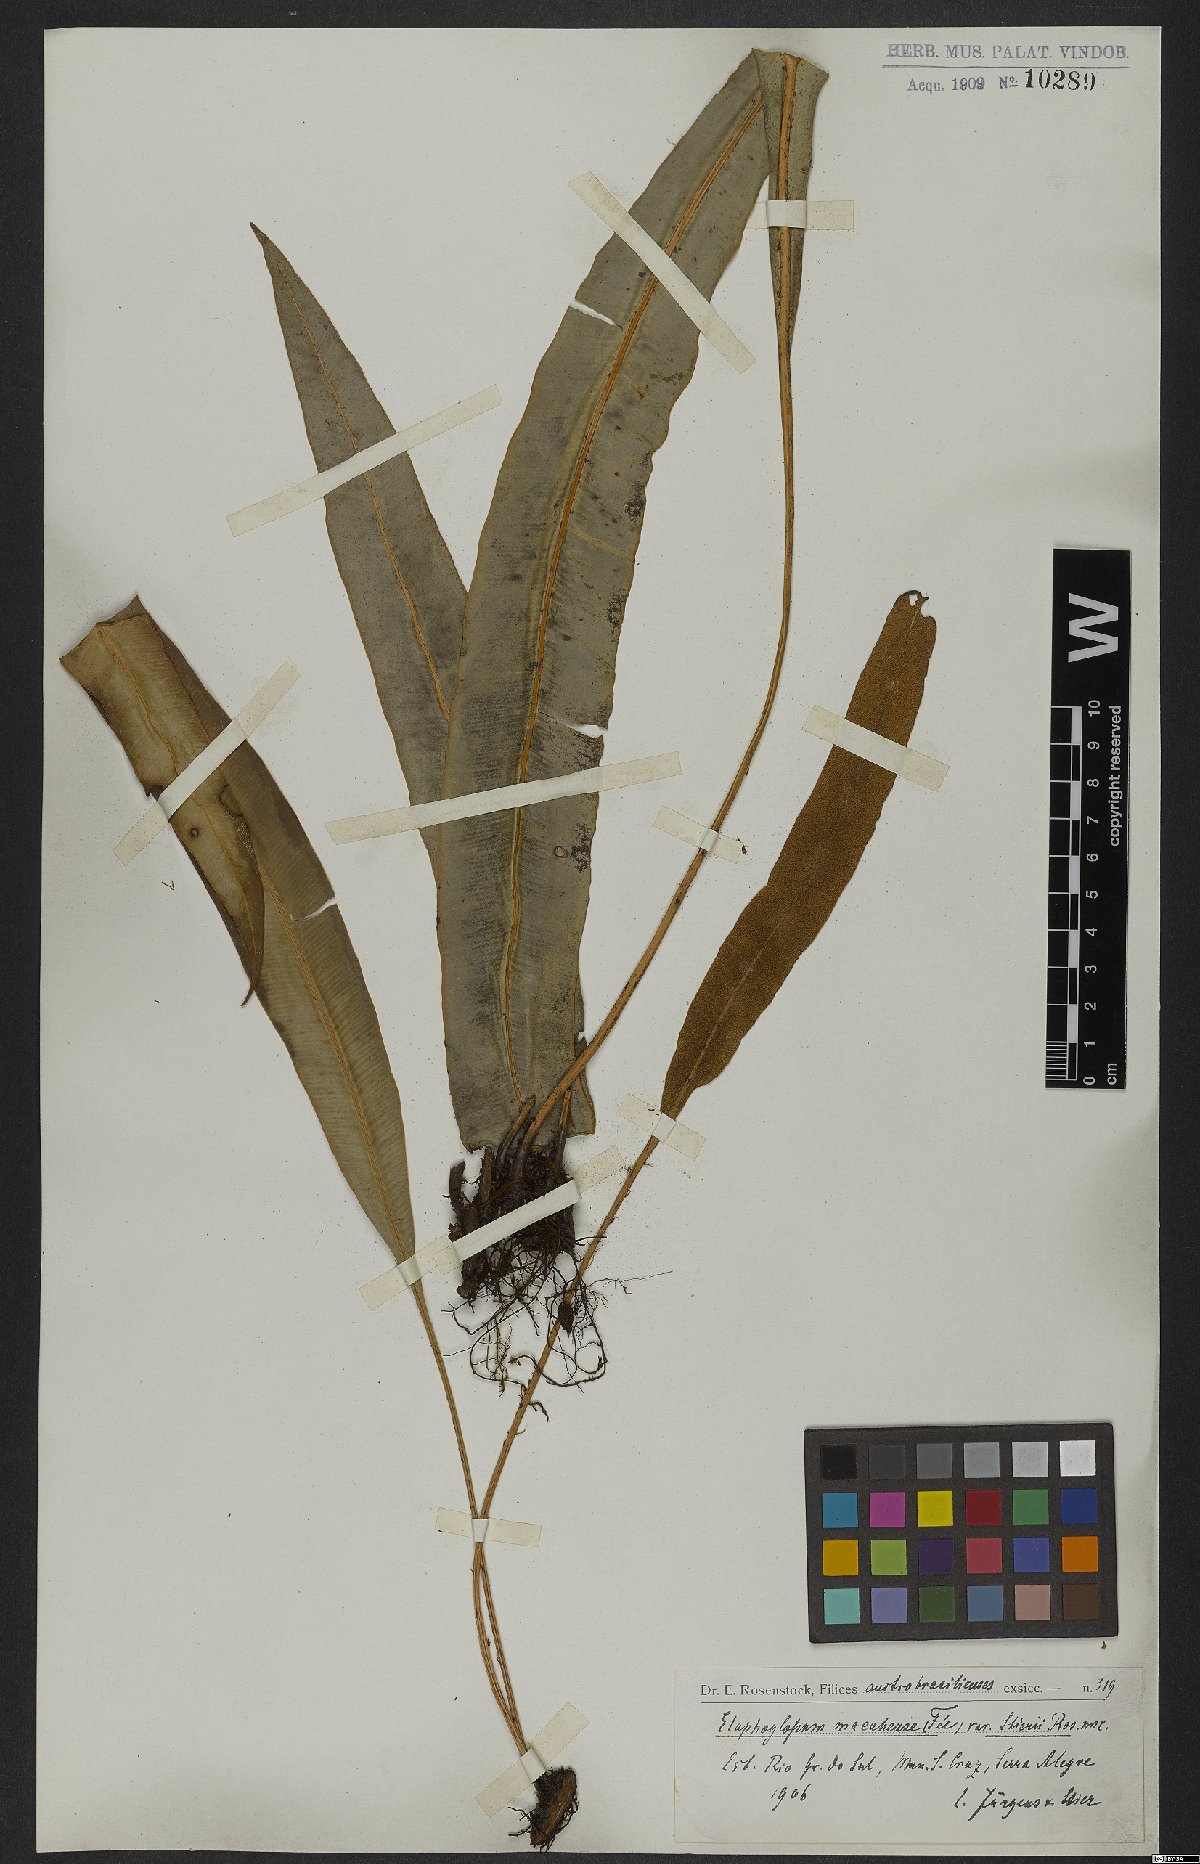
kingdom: Plantae
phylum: Tracheophyta
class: Polypodiopsida
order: Polypodiales
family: Dryopteridaceae
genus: Elaphoglossum
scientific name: Elaphoglossum macahense
